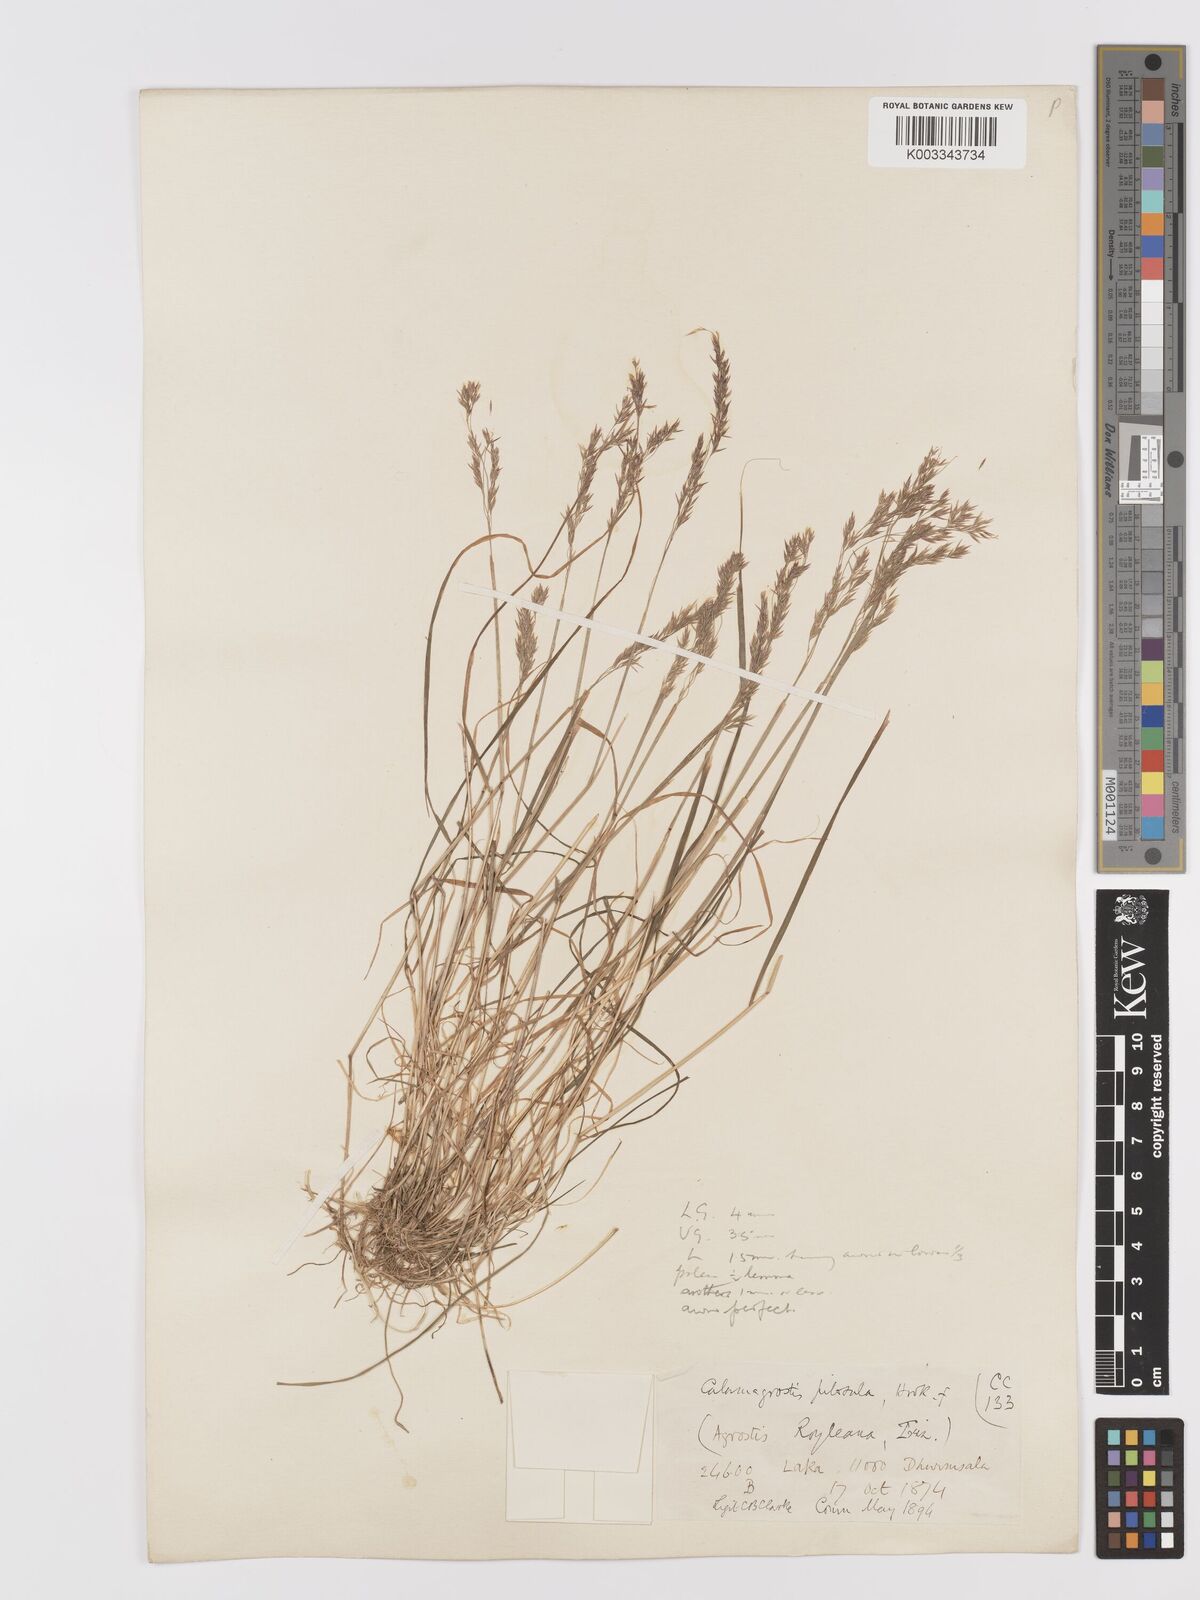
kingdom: Plantae
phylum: Tracheophyta
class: Liliopsida
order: Poales
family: Poaceae
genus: Agrostis
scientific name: Agrostis pilosula
